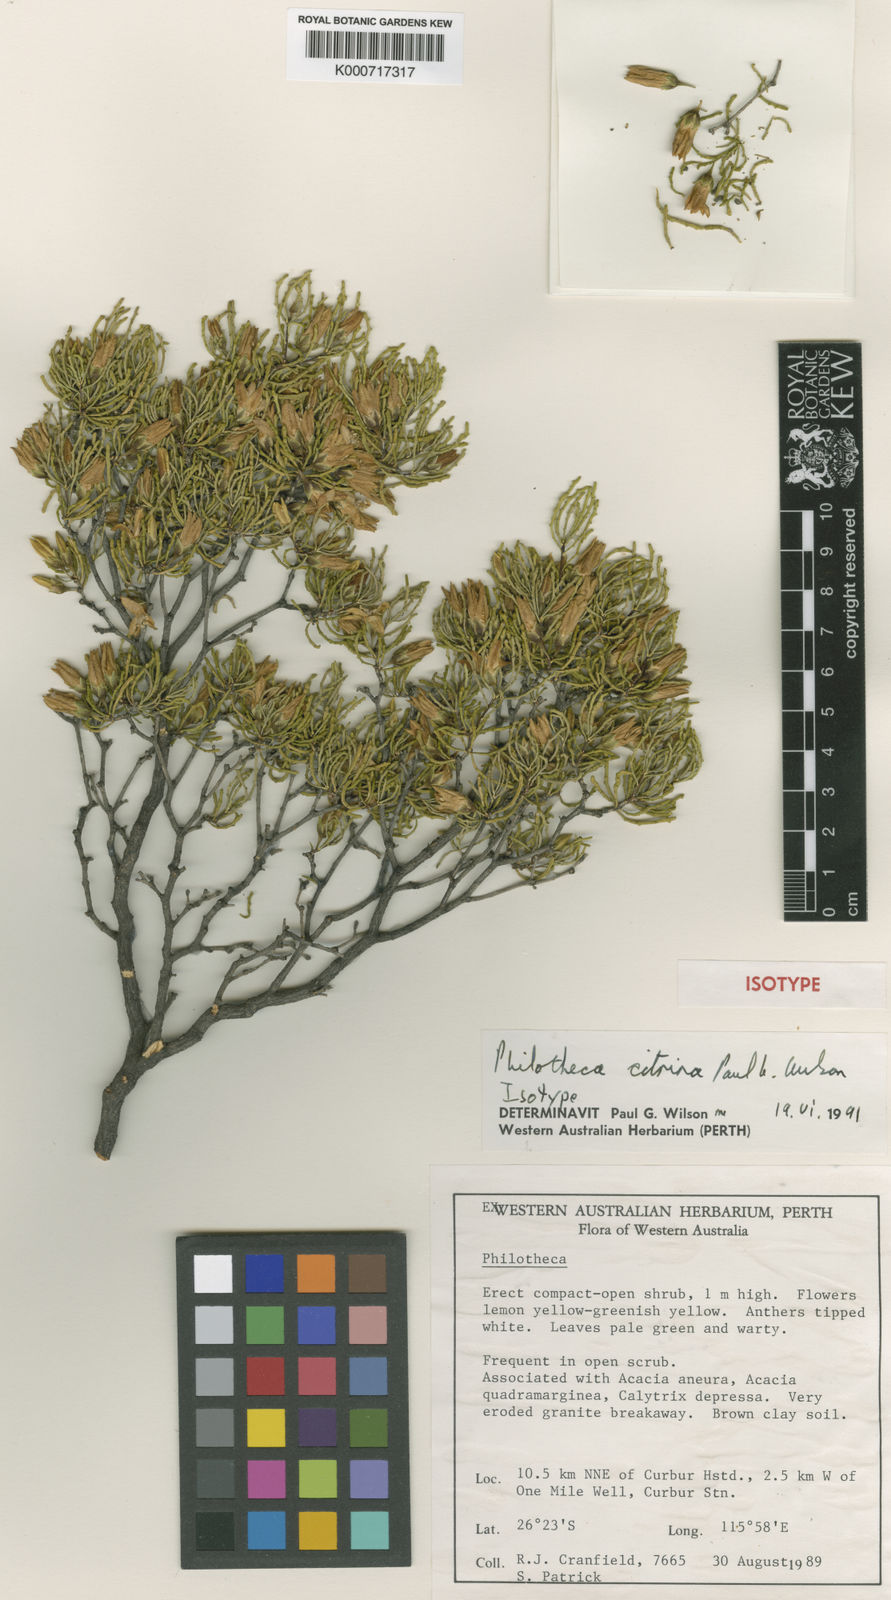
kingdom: Plantae
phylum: Tracheophyta
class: Magnoliopsida
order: Sapindales
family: Rutaceae
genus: Philotheca
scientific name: Philotheca citrina
